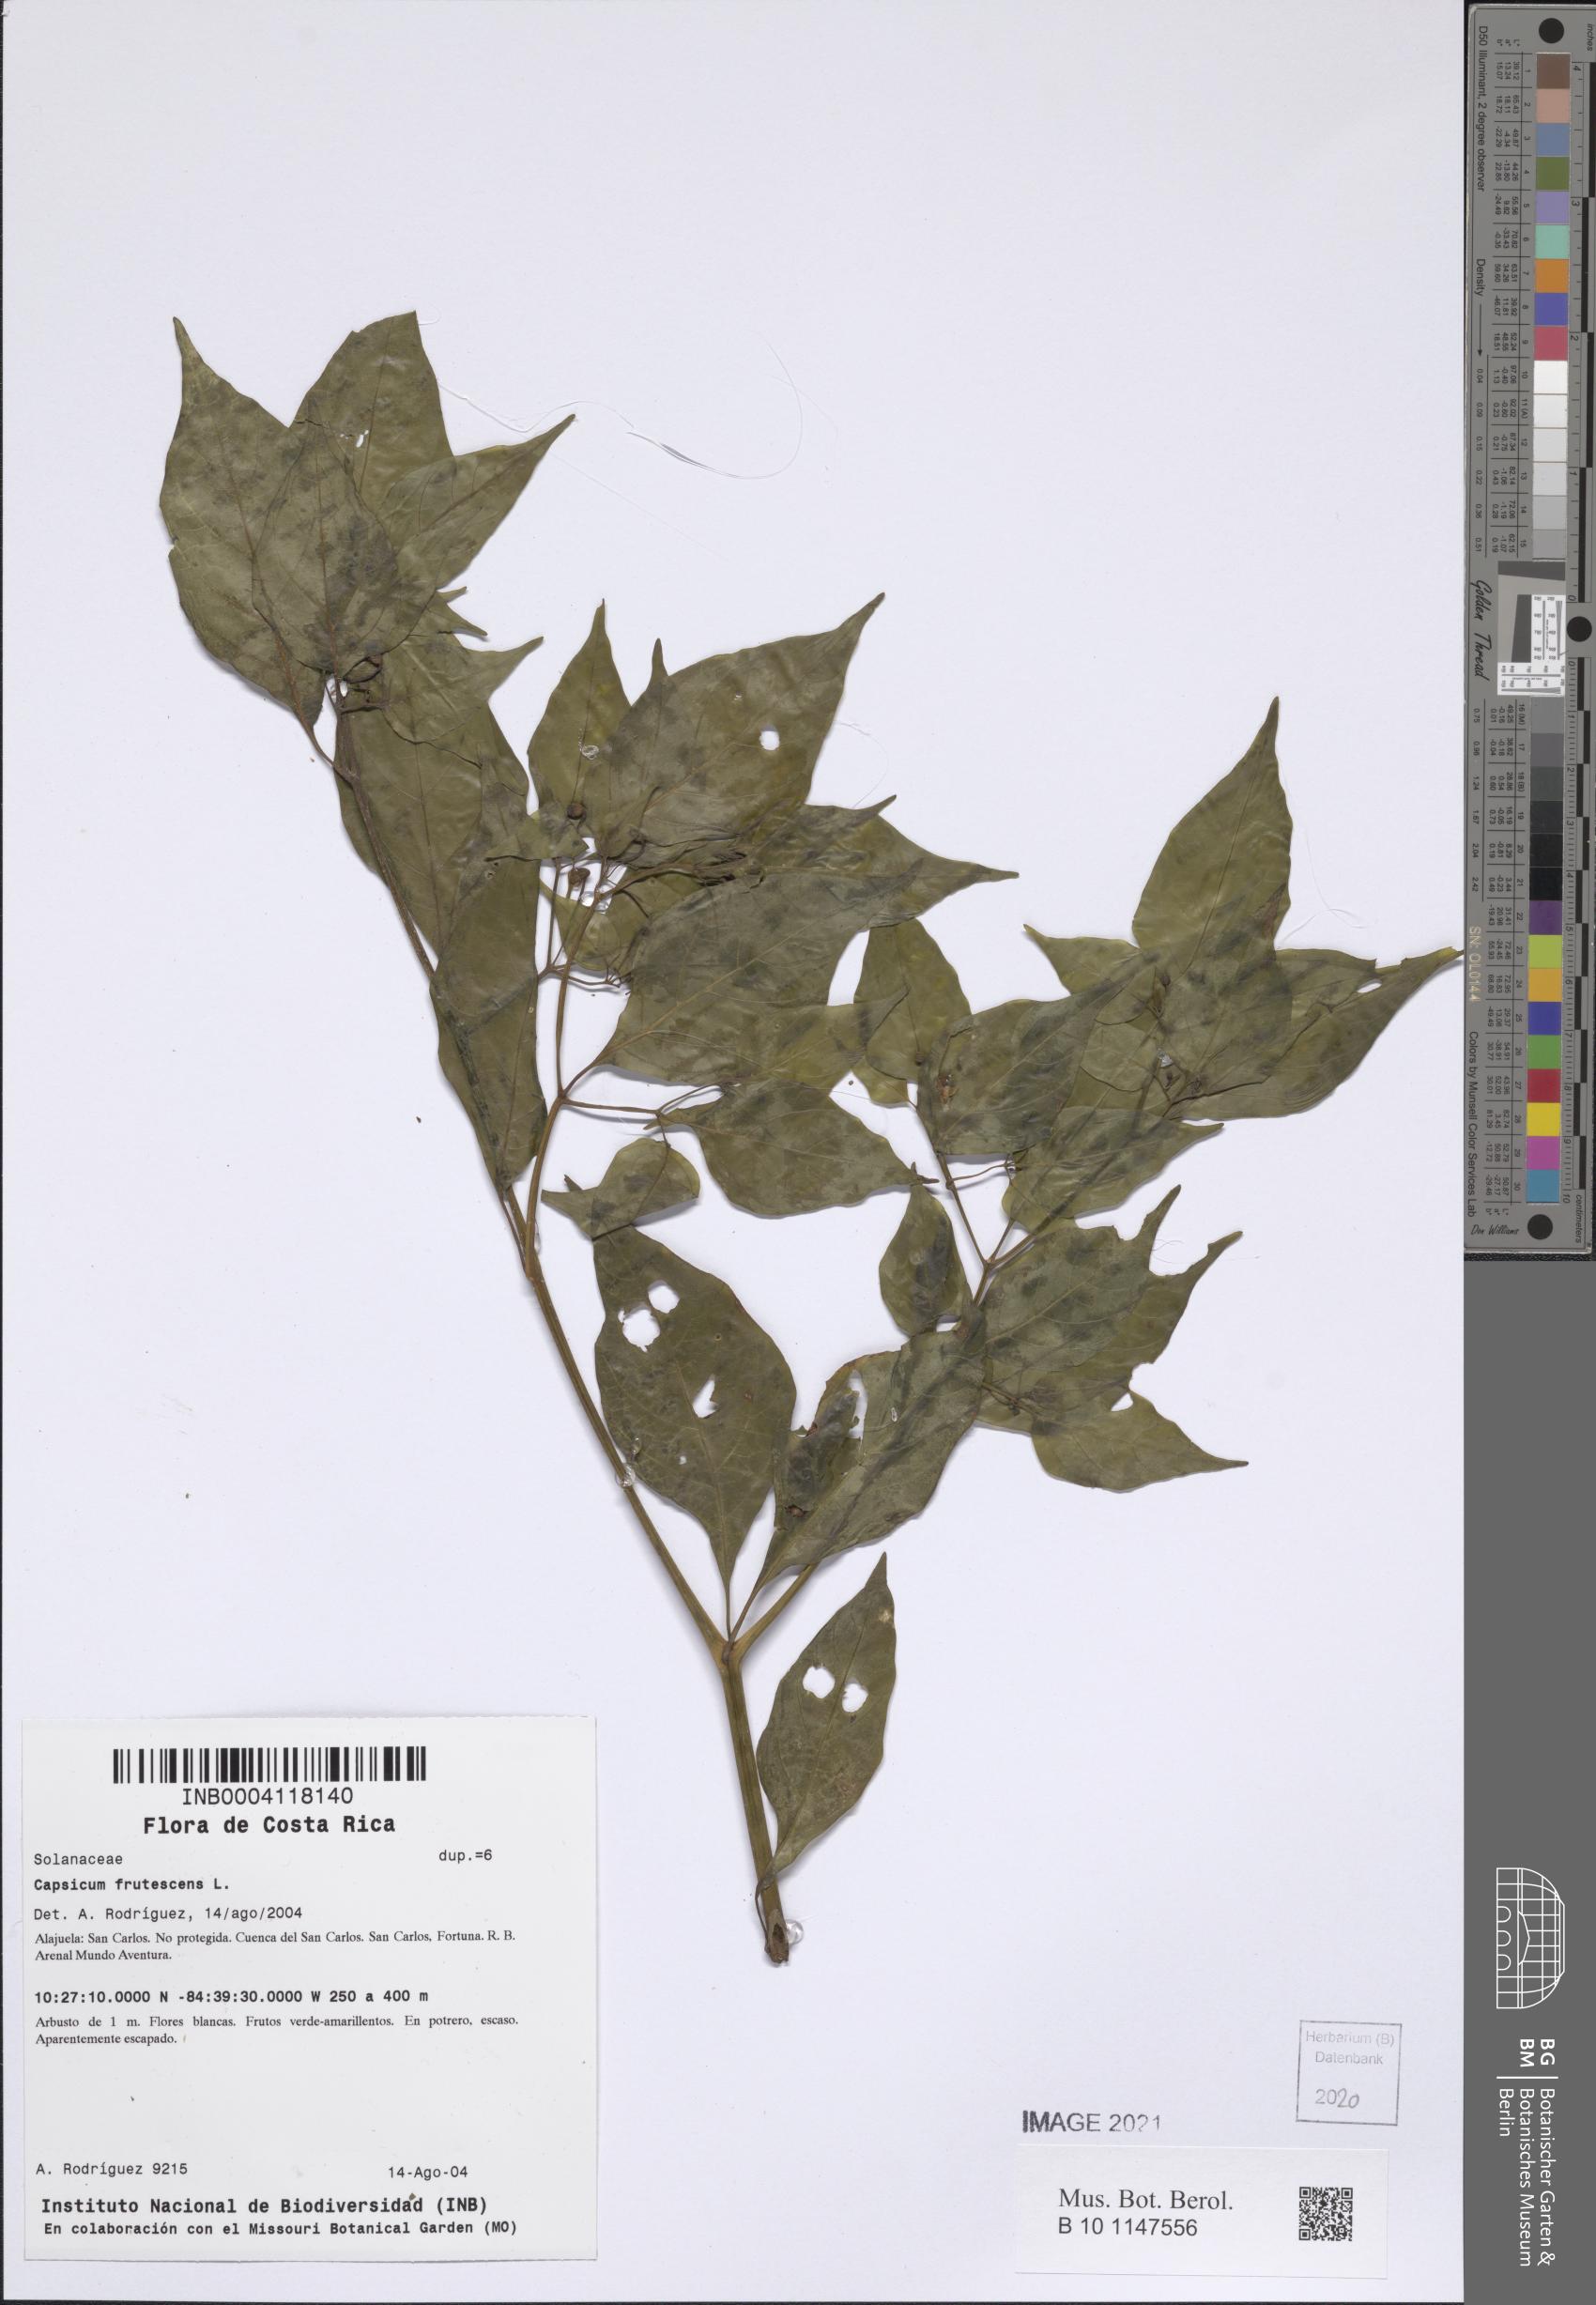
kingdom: Plantae
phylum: Tracheophyta
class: Magnoliopsida
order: Solanales
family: Solanaceae
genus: Capsicum
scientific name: Capsicum frutescens
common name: Bird pepper
